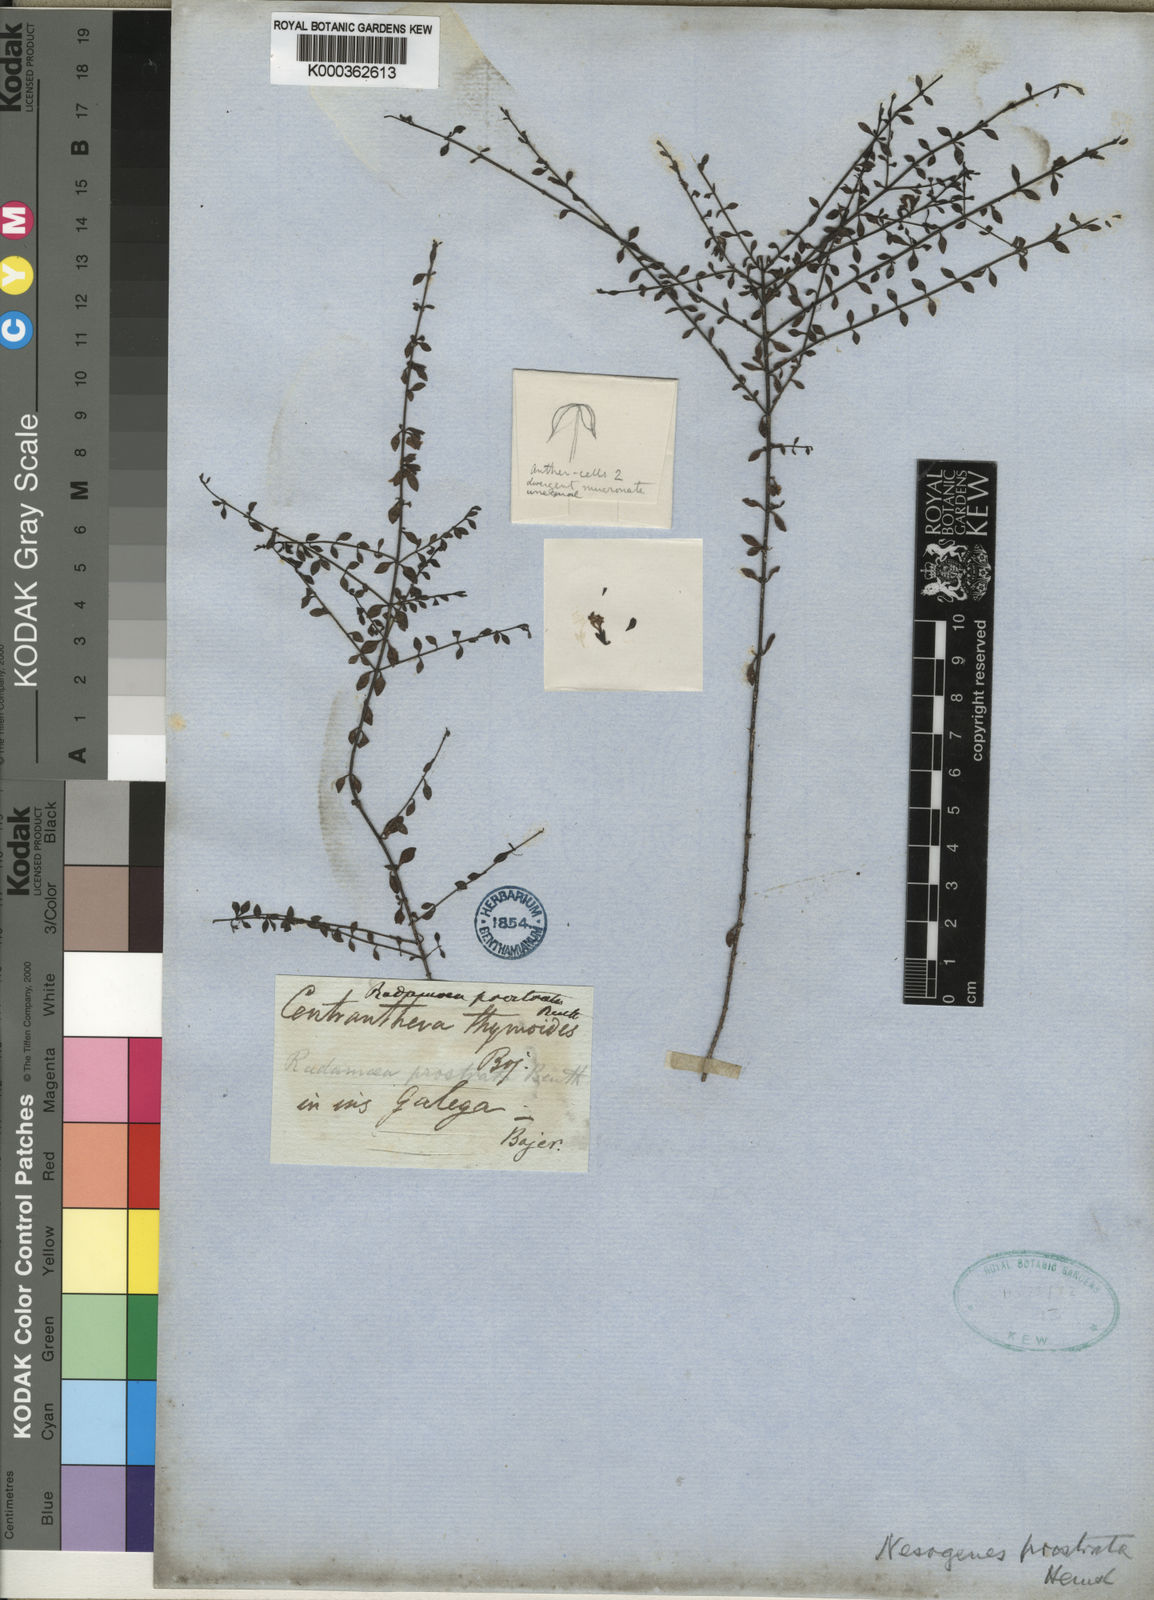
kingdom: Plantae
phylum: Tracheophyta
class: Magnoliopsida
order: Lamiales
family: Orobanchaceae
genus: Nesogenes
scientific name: Nesogenes prostrata
